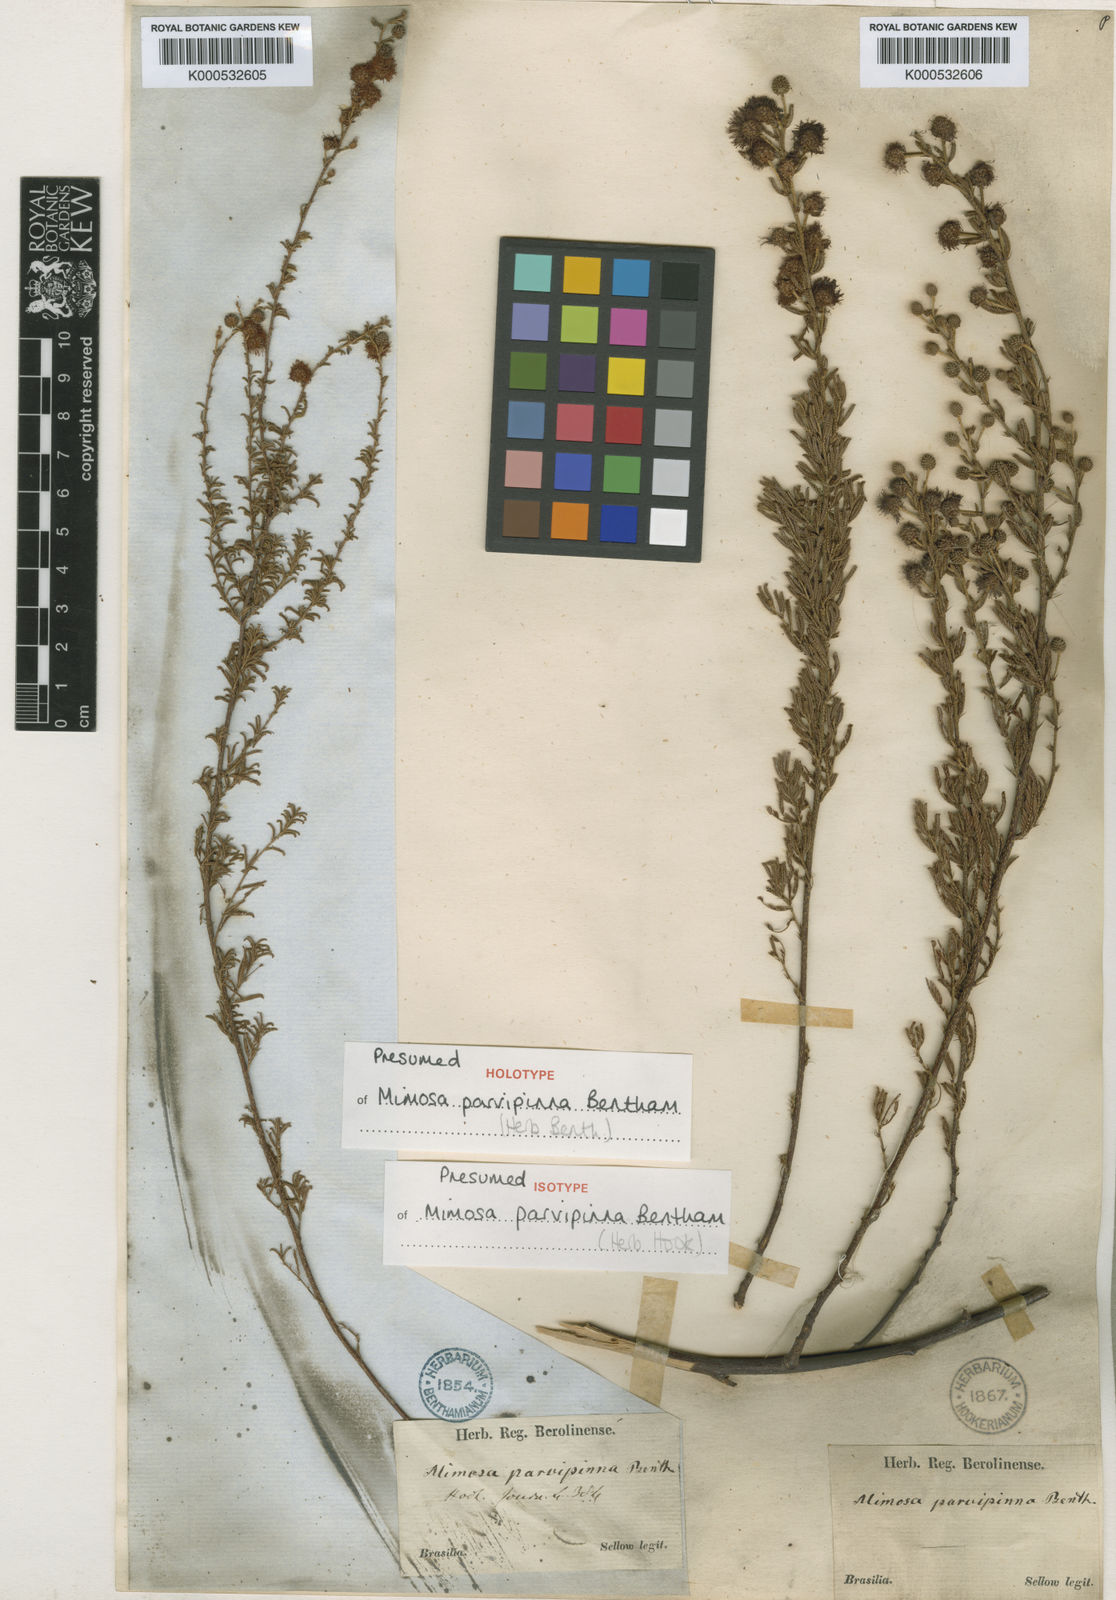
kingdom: Plantae
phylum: Tracheophyta
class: Magnoliopsida
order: Fabales
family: Fabaceae
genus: Mimosa
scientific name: Mimosa parvipinna
